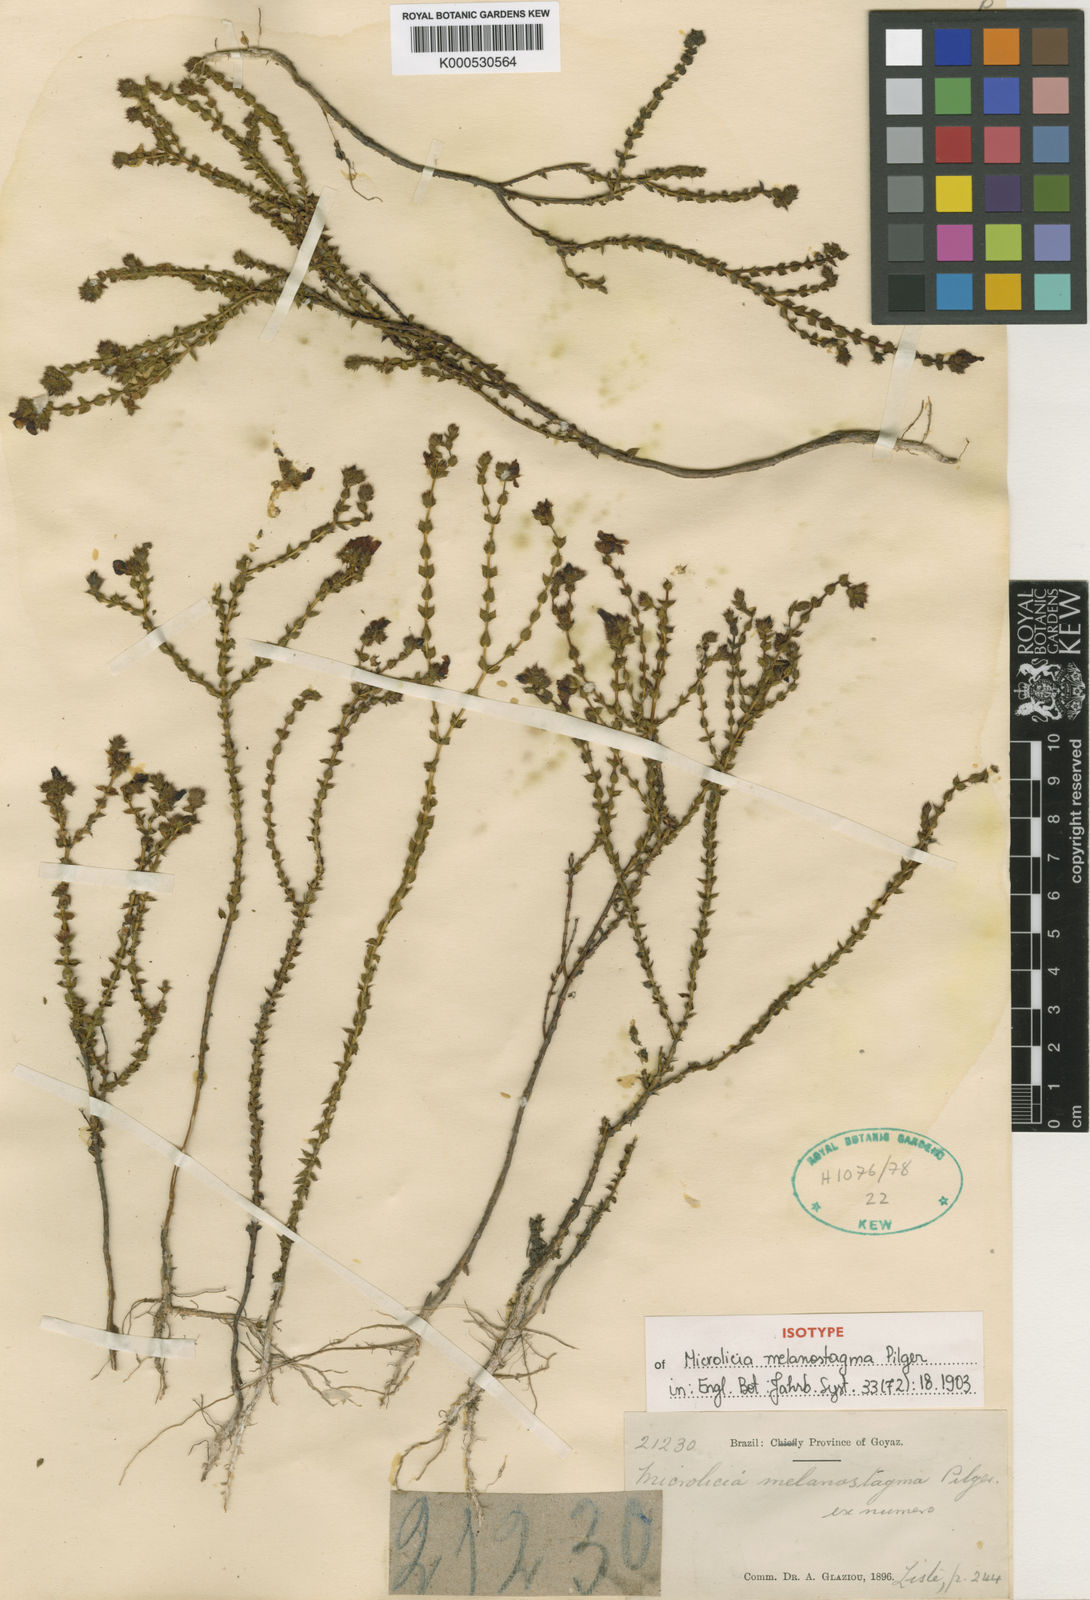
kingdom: Plantae
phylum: Tracheophyta
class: Magnoliopsida
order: Myrtales
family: Melastomataceae
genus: Microlicia
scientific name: Microlicia melanostagma
